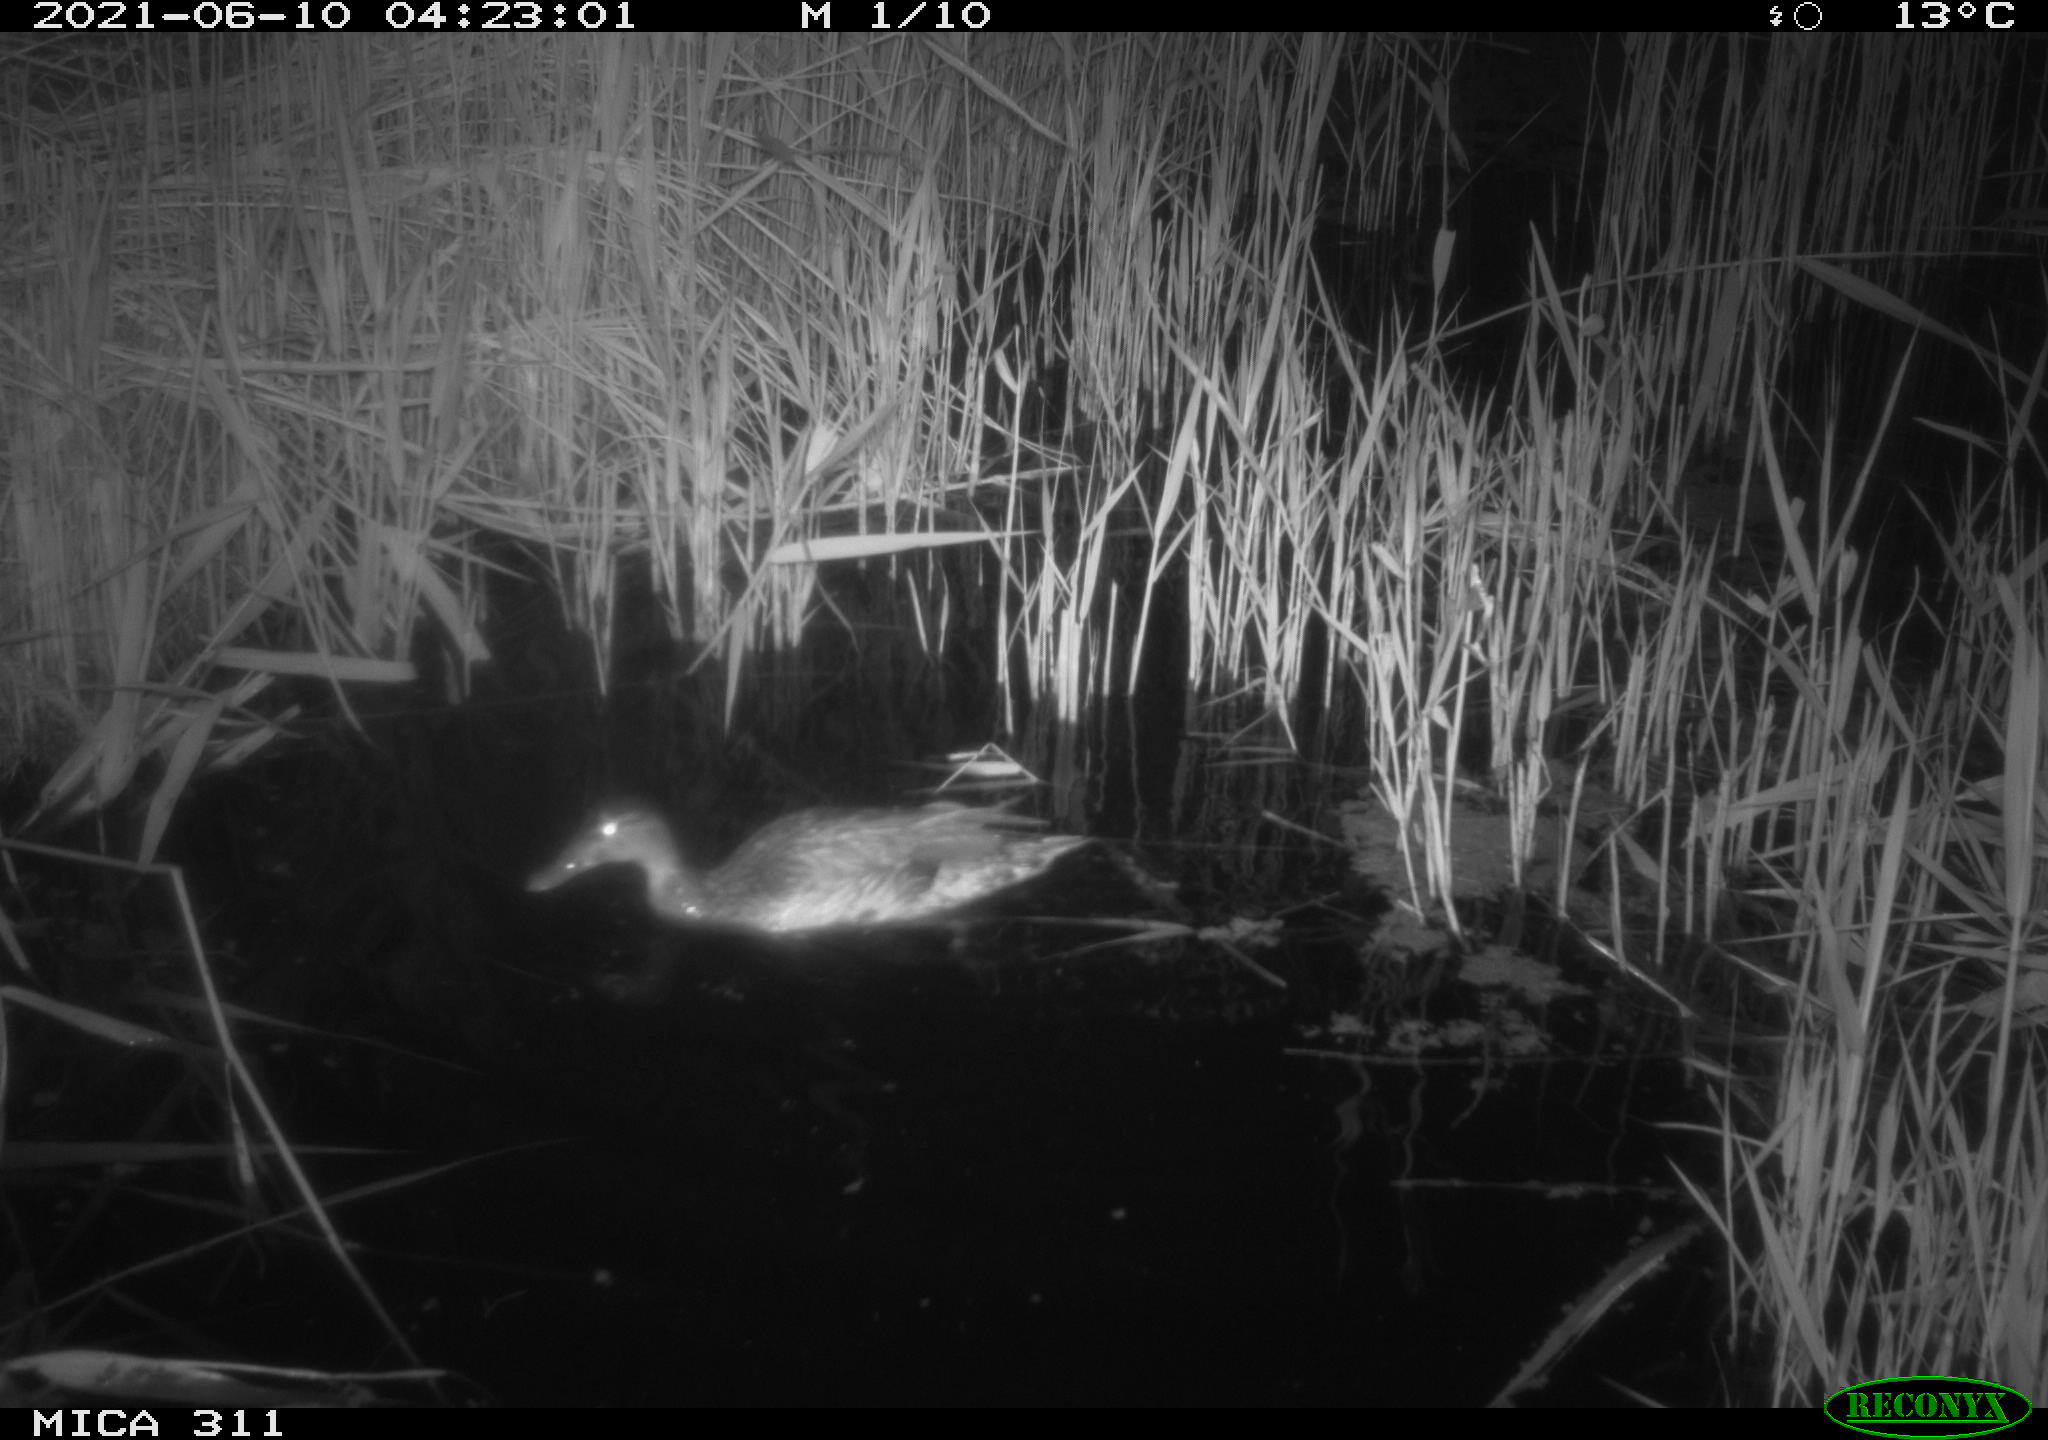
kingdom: Animalia
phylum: Chordata
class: Aves
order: Anseriformes
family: Anatidae
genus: Anas
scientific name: Anas
